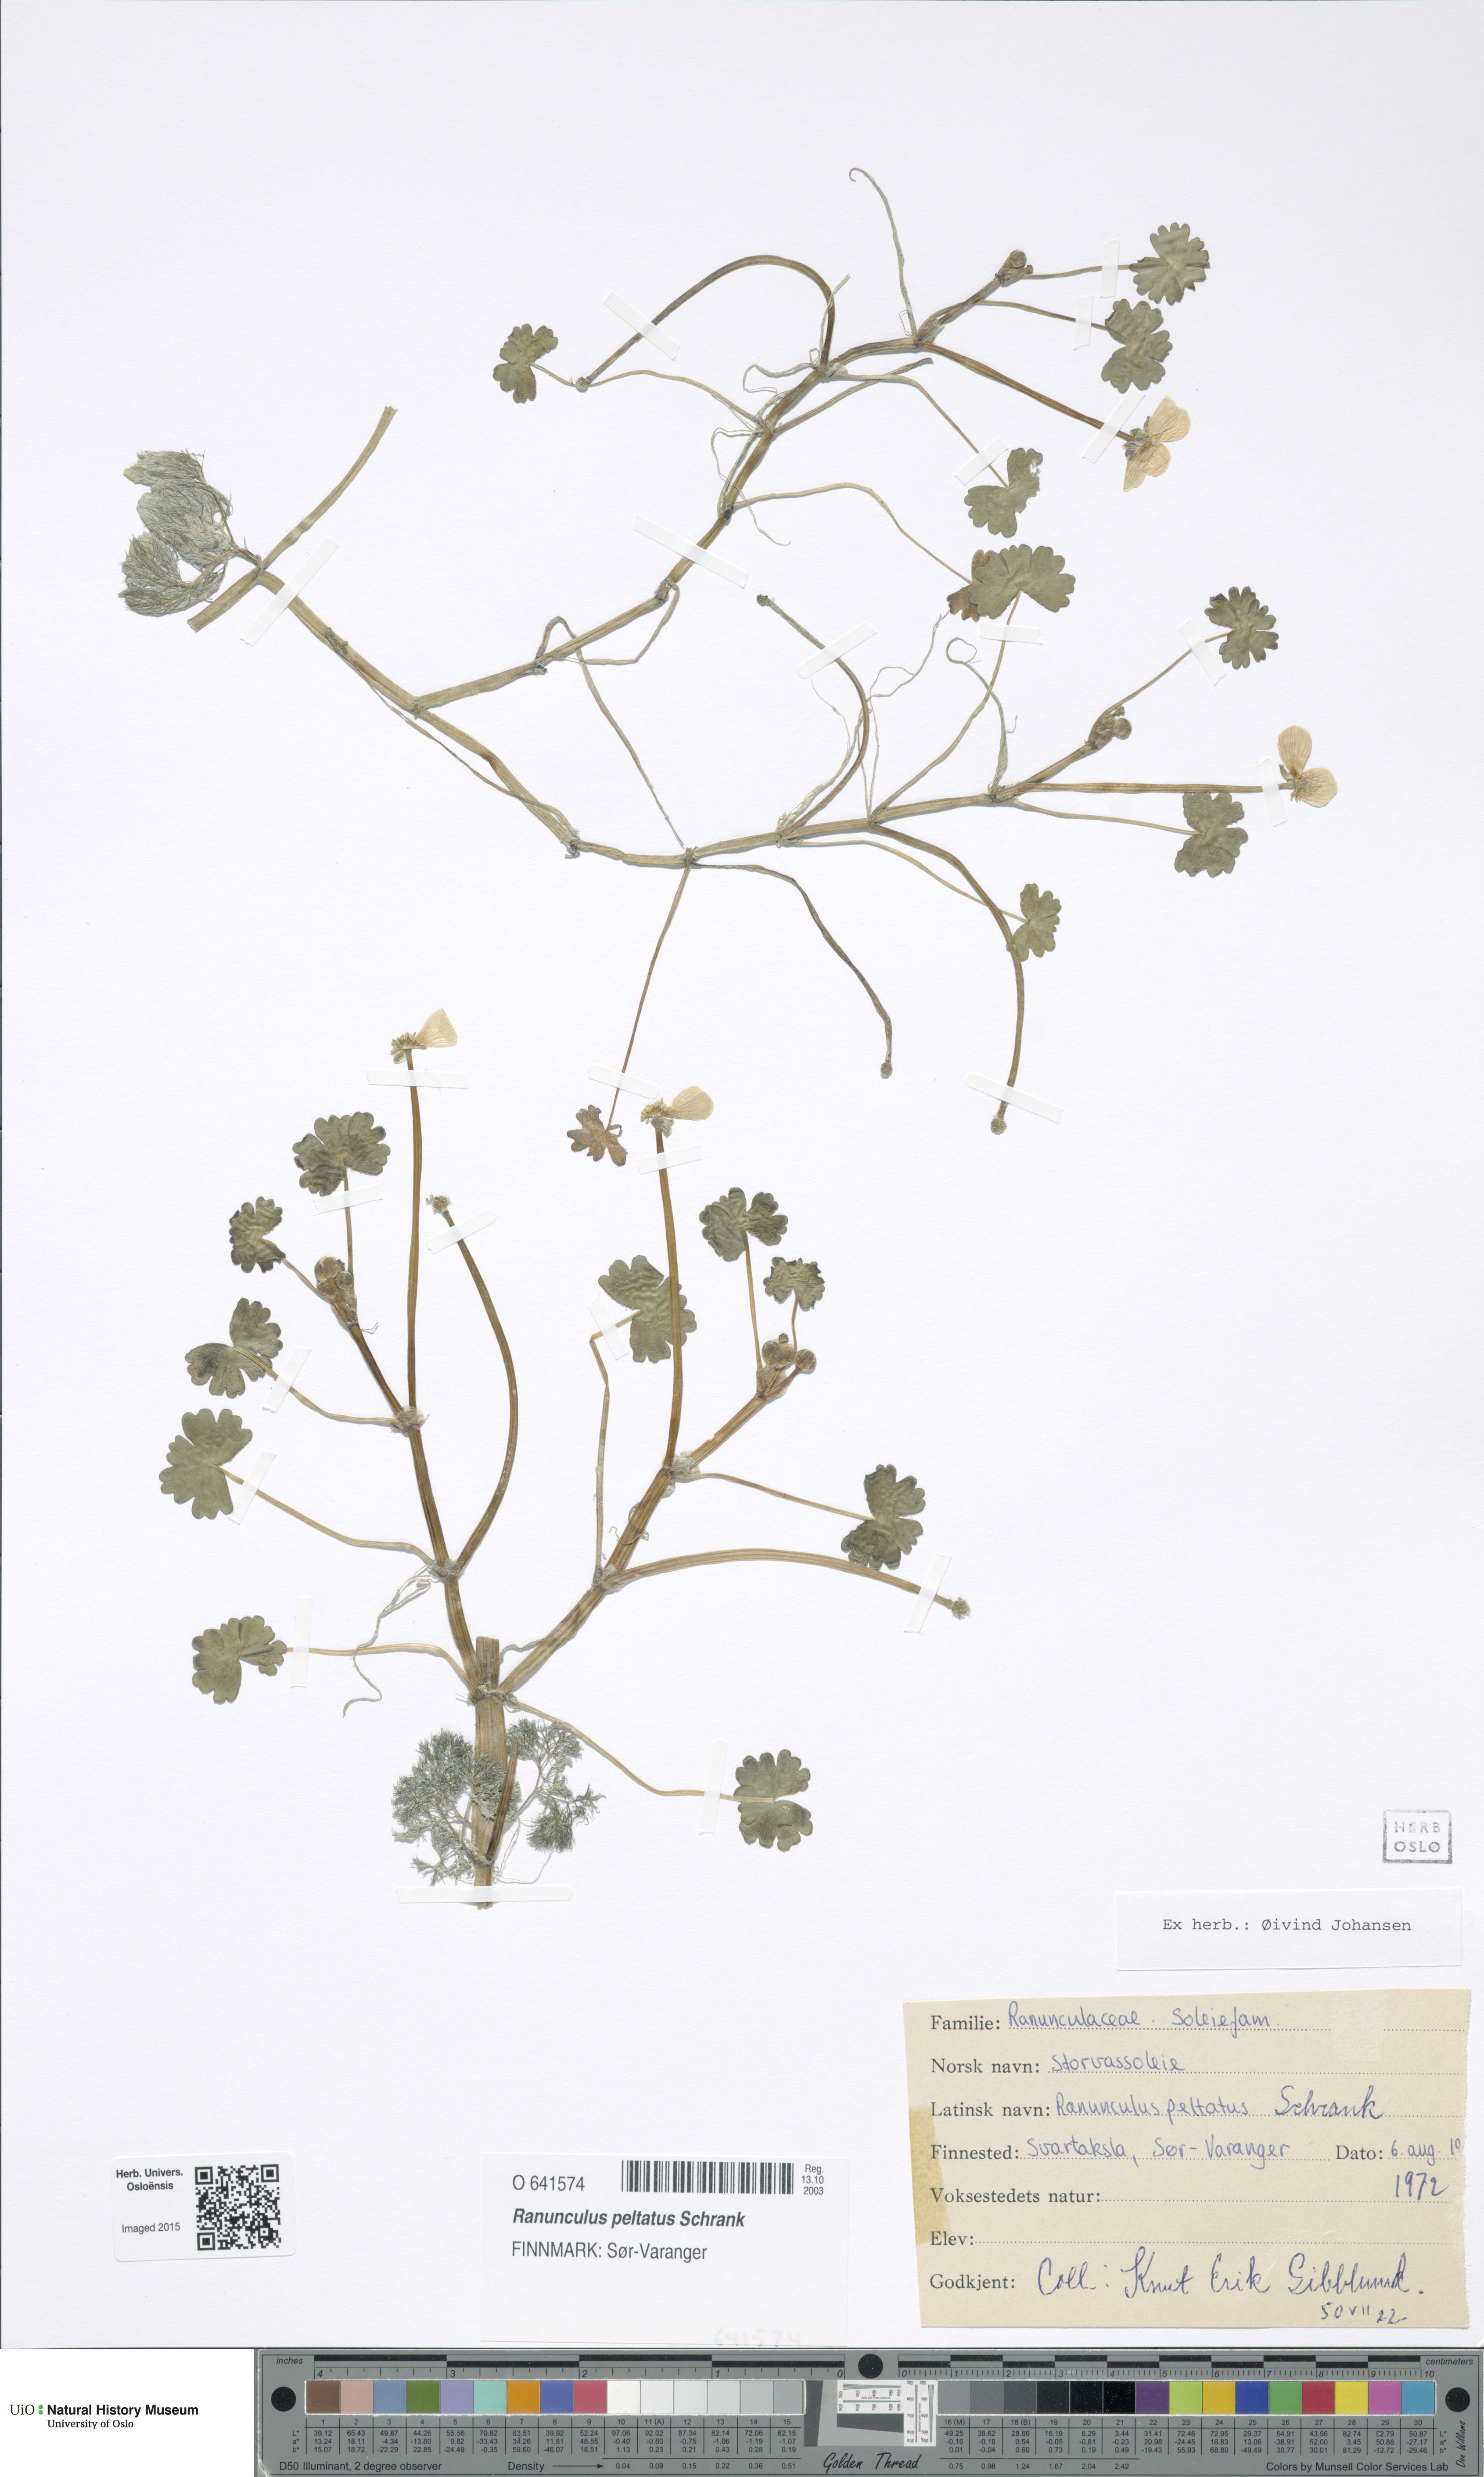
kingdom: Plantae
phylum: Tracheophyta
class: Magnoliopsida
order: Ranunculales
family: Ranunculaceae
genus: Ranunculus
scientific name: Ranunculus peltatus
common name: Pond water-crowfoot
